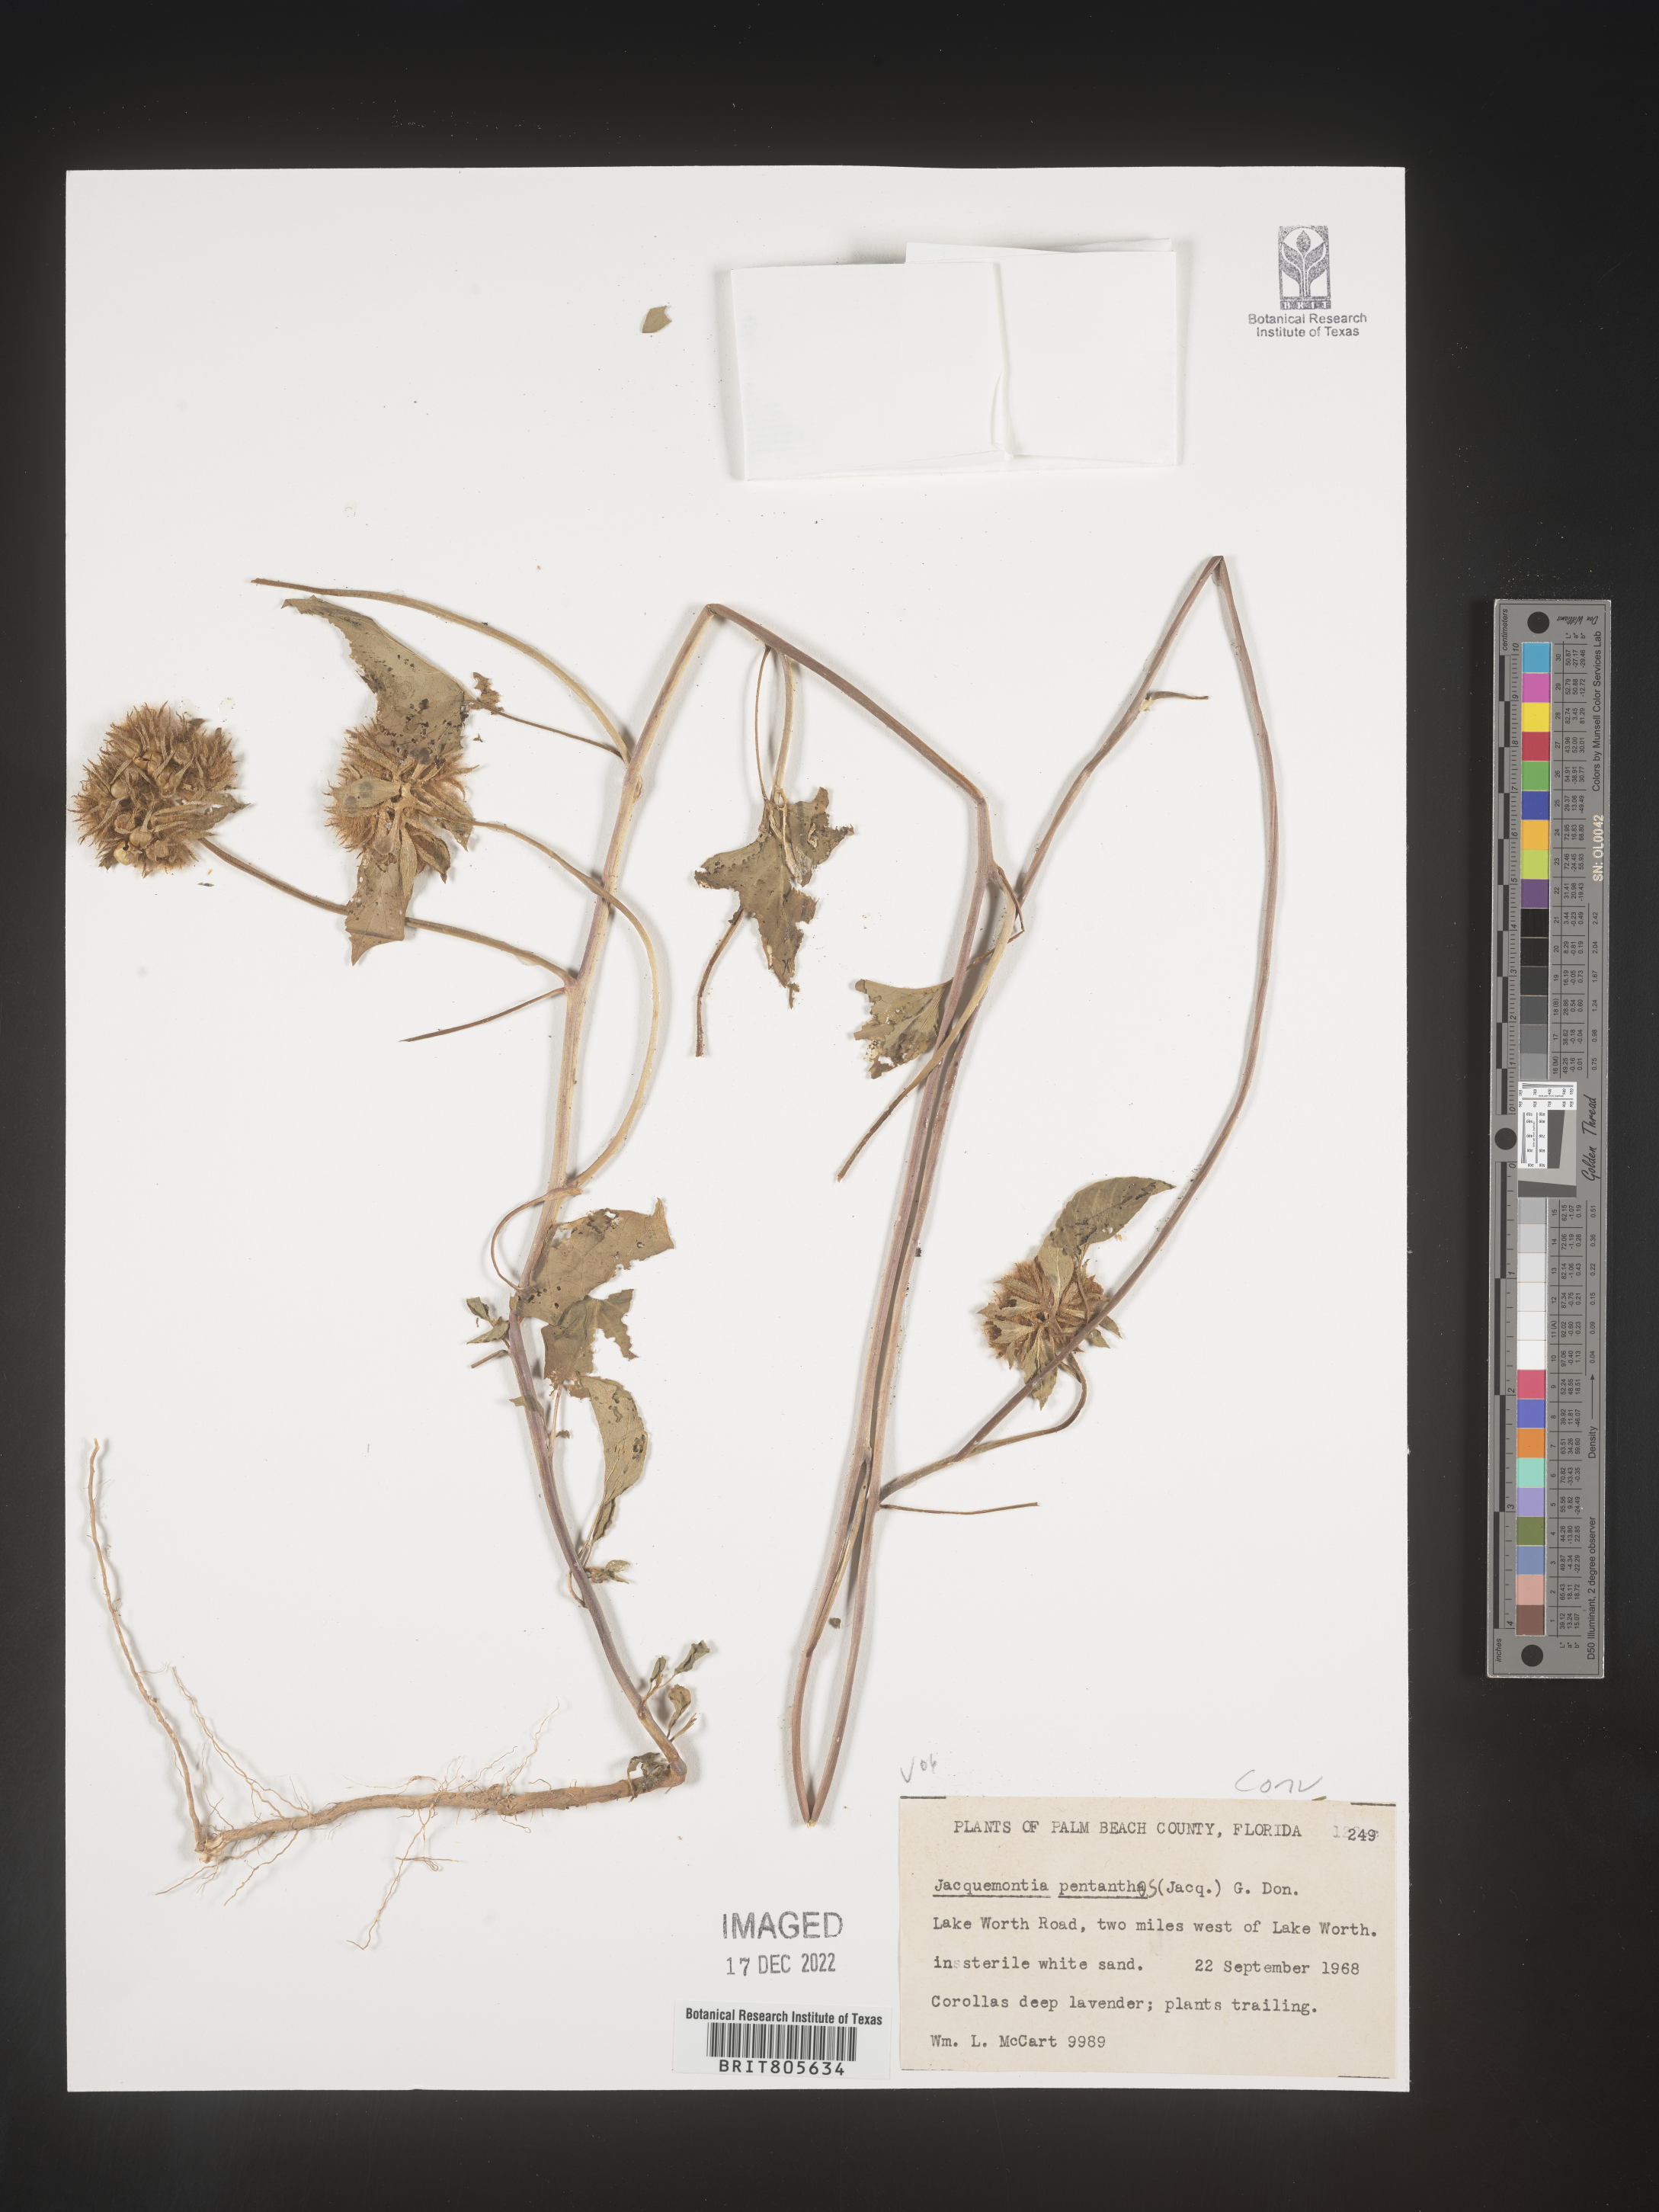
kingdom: Plantae
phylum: Tracheophyta
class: Magnoliopsida
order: Solanales
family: Convolvulaceae
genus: Jacquemontia
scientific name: Jacquemontia
